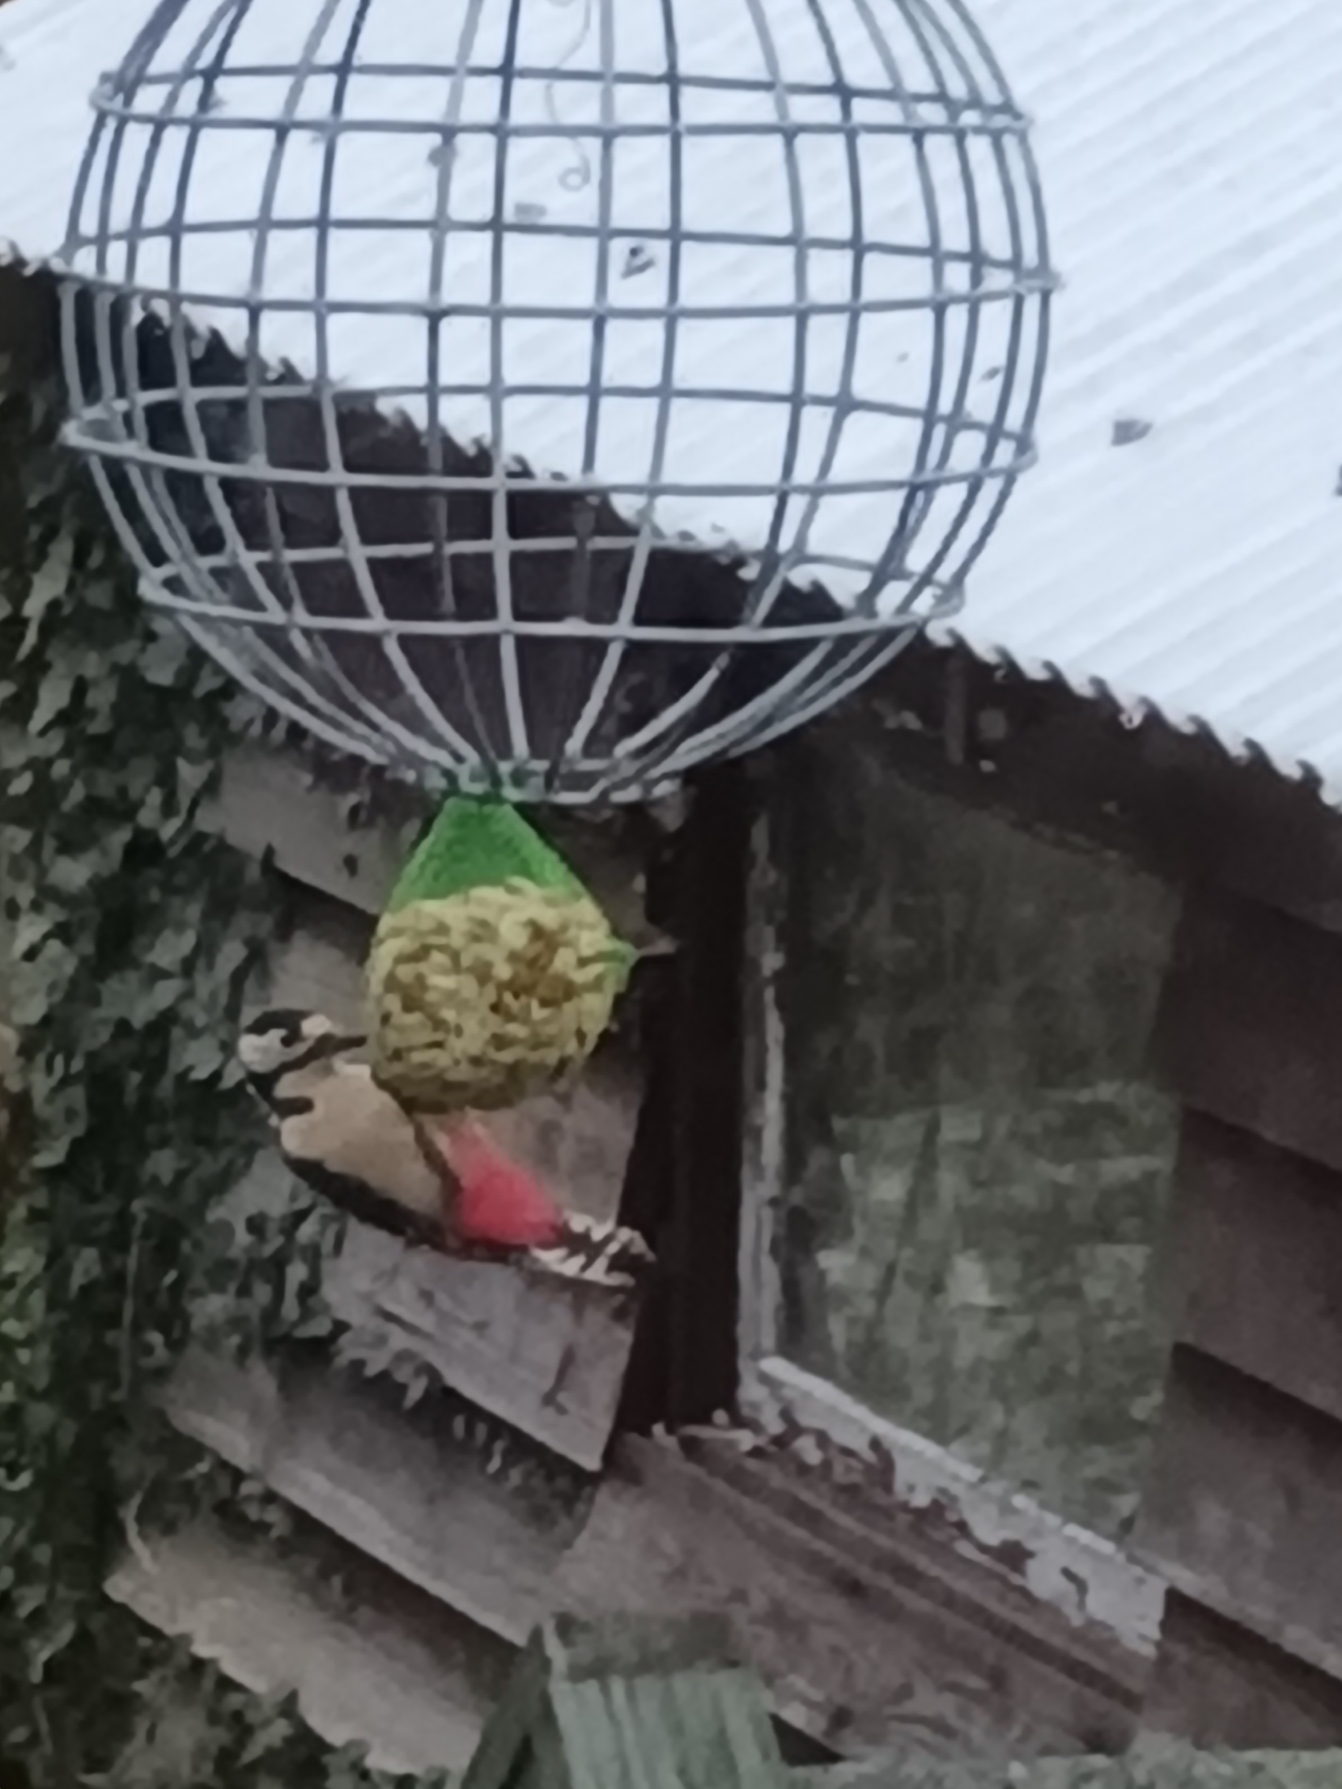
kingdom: Animalia
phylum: Chordata
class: Aves
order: Piciformes
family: Picidae
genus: Dendrocopos
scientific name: Dendrocopos major
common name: Stor flagspætte
